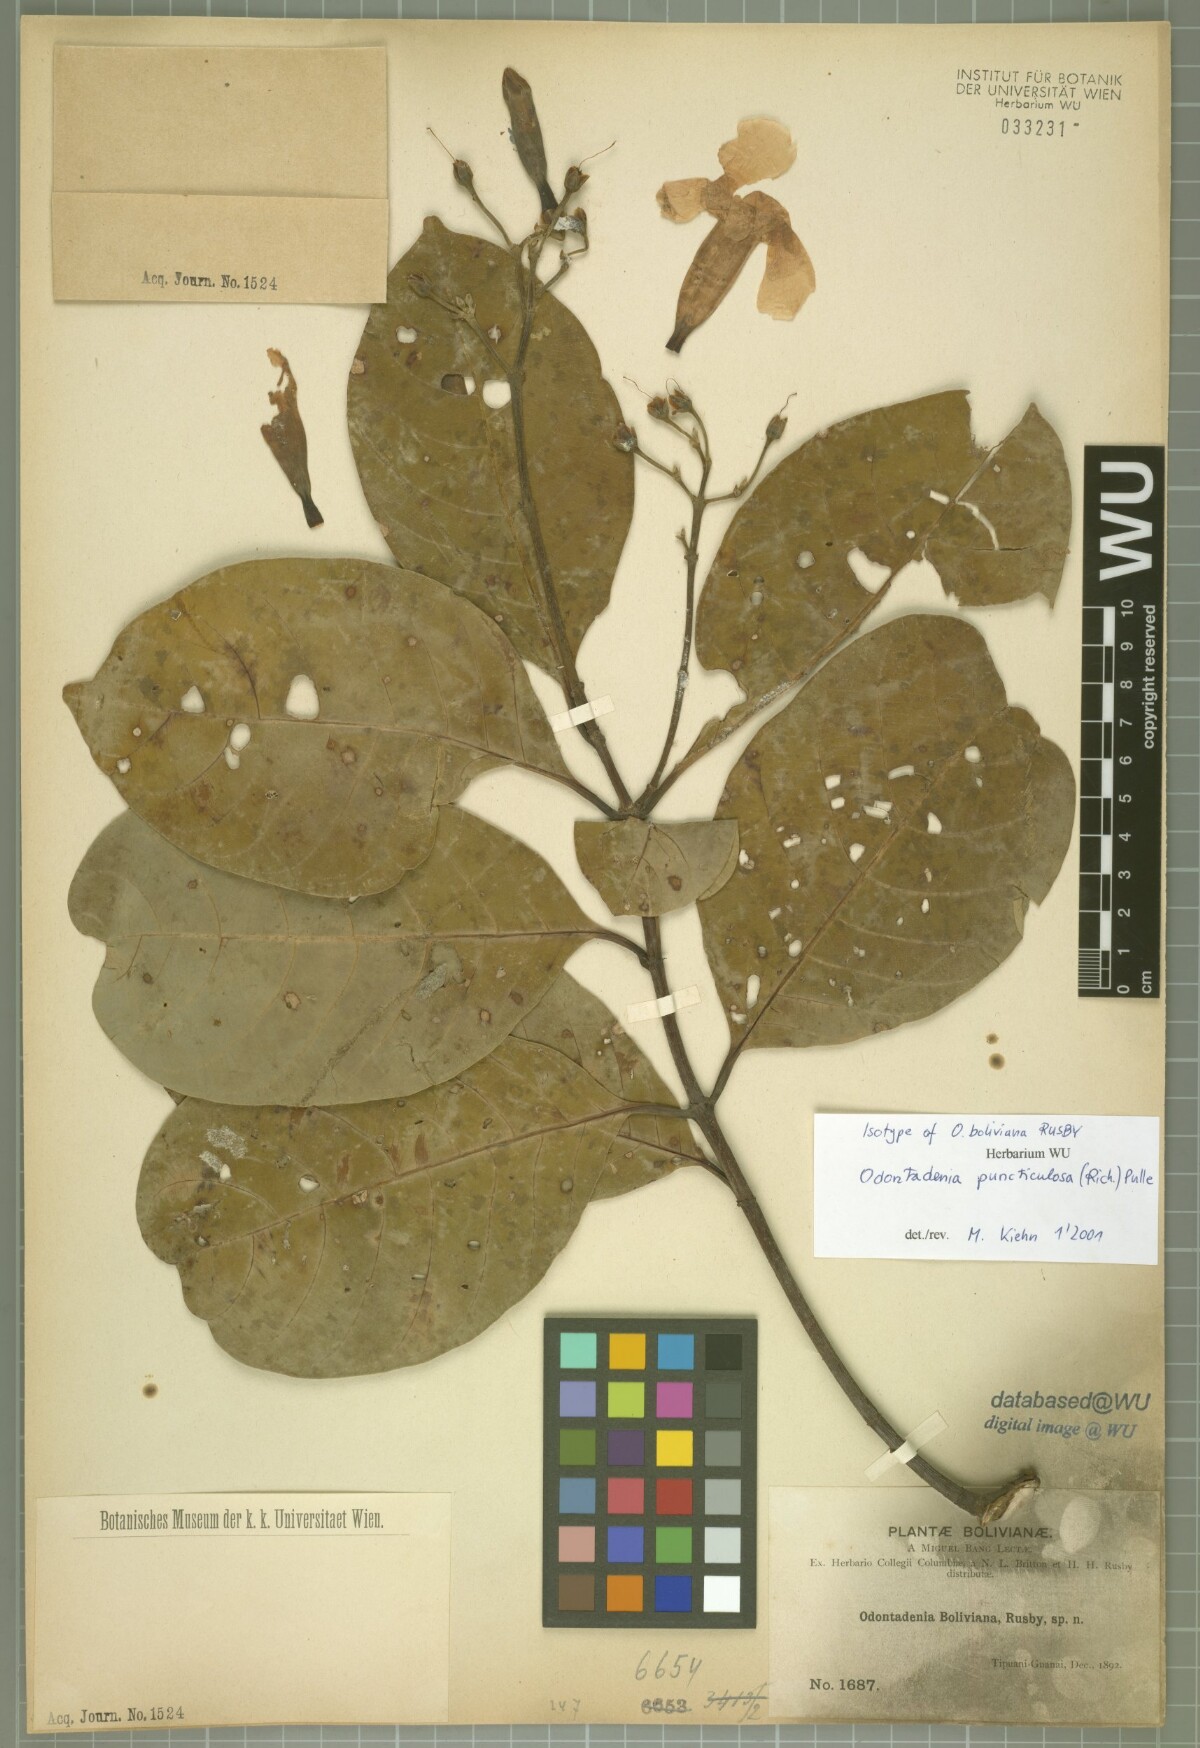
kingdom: Plantae
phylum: Tracheophyta
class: Magnoliopsida
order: Gentianales
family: Apocynaceae
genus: Odontadenia
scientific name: Odontadenia puncticulosa
